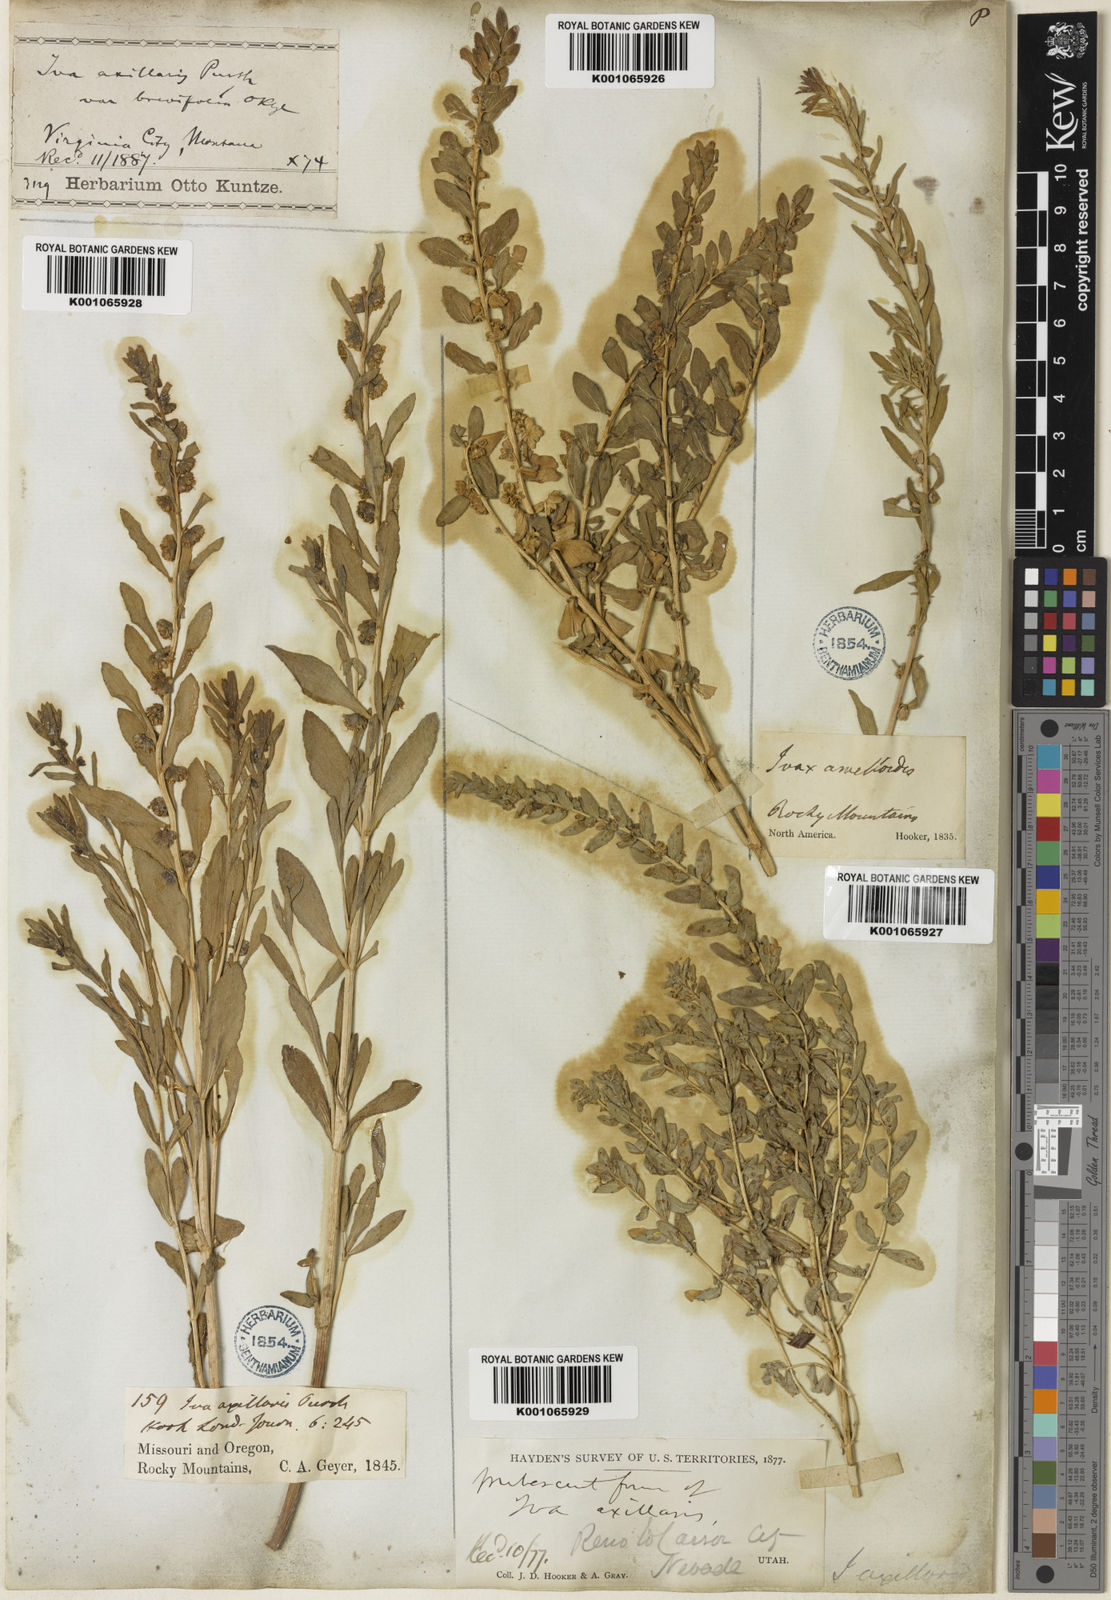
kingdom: Plantae
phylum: Tracheophyta
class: Magnoliopsida
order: Asterales
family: Asteraceae
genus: Iva
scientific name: Iva axillaris
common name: Poverty sumpweed
